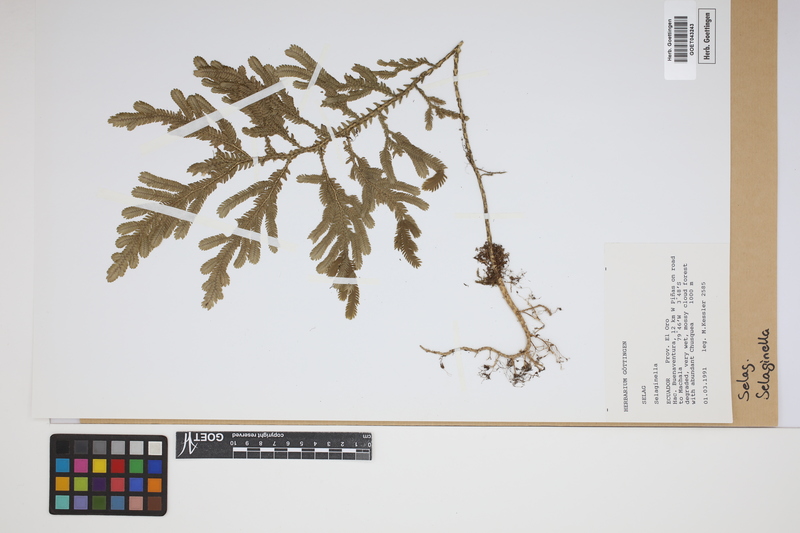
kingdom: Plantae
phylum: Tracheophyta
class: Lycopodiopsida
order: Selaginellales
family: Selaginellaceae
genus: Selaginella
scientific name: Selaginella
